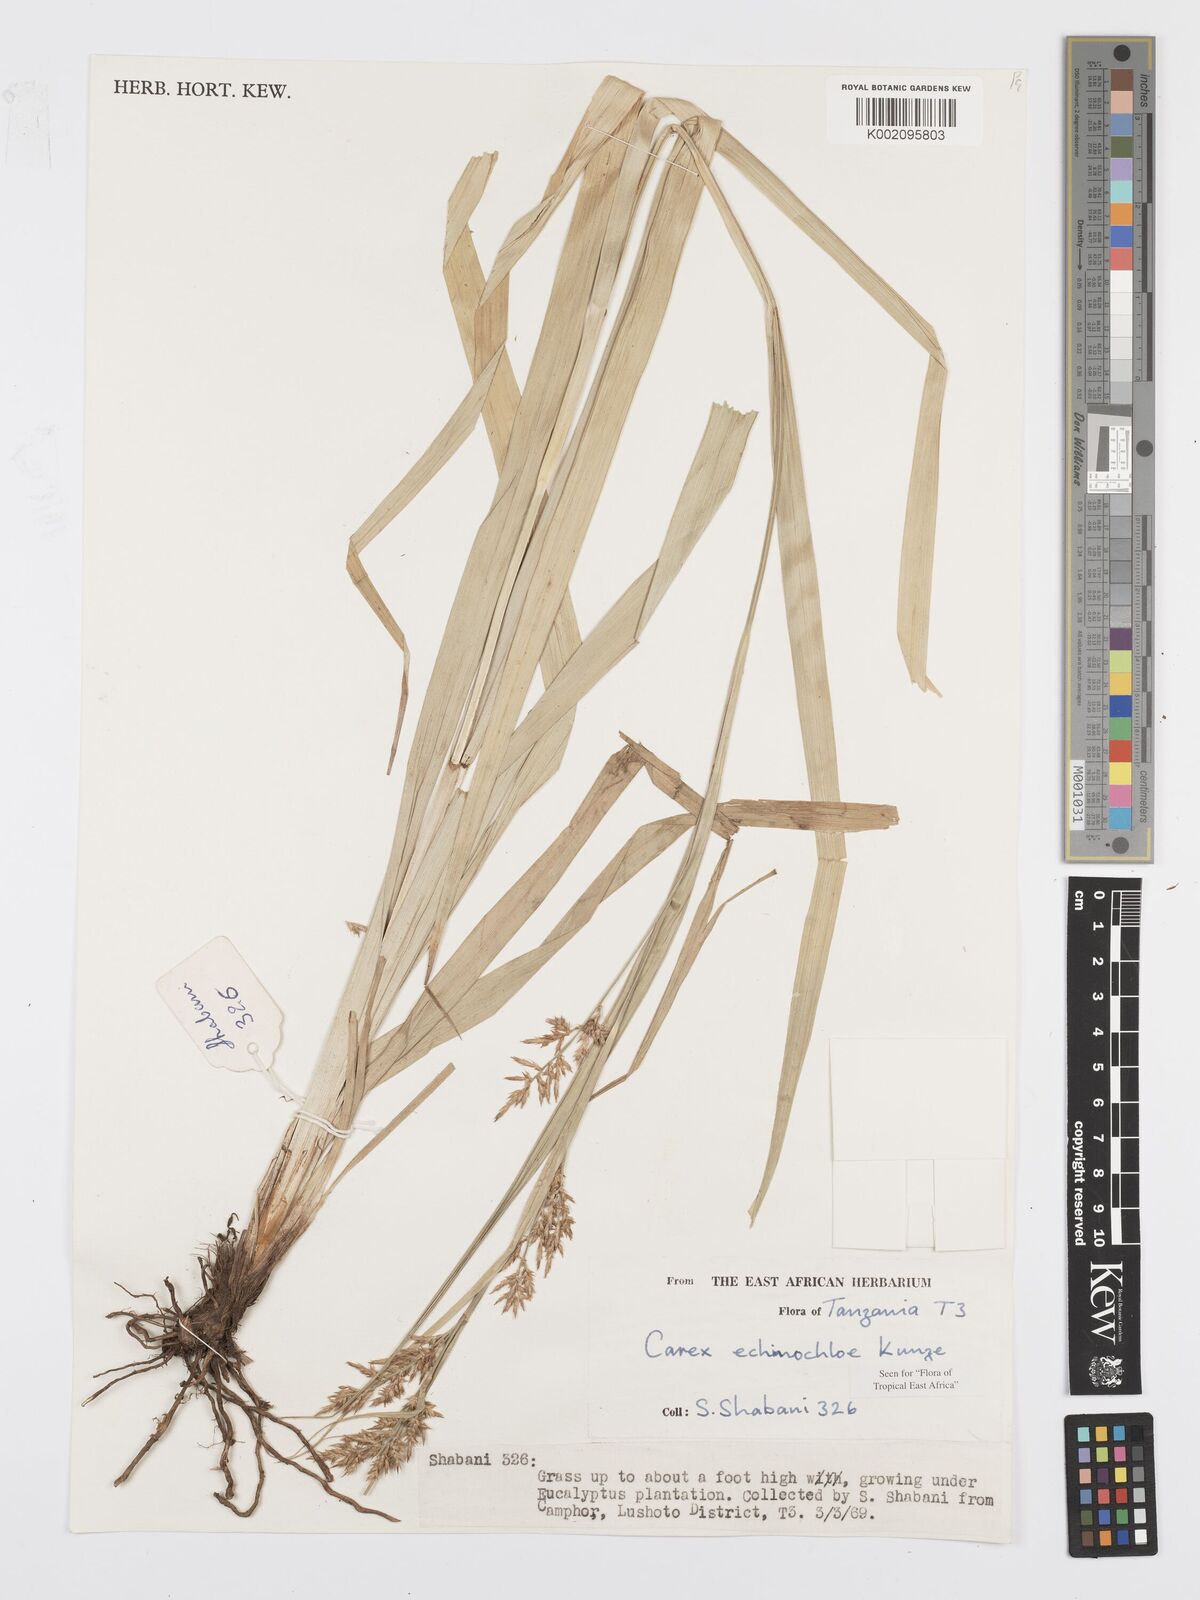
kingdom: Plantae
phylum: Tracheophyta
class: Liliopsida
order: Poales
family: Cyperaceae
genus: Carex
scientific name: Carex echinochloe
